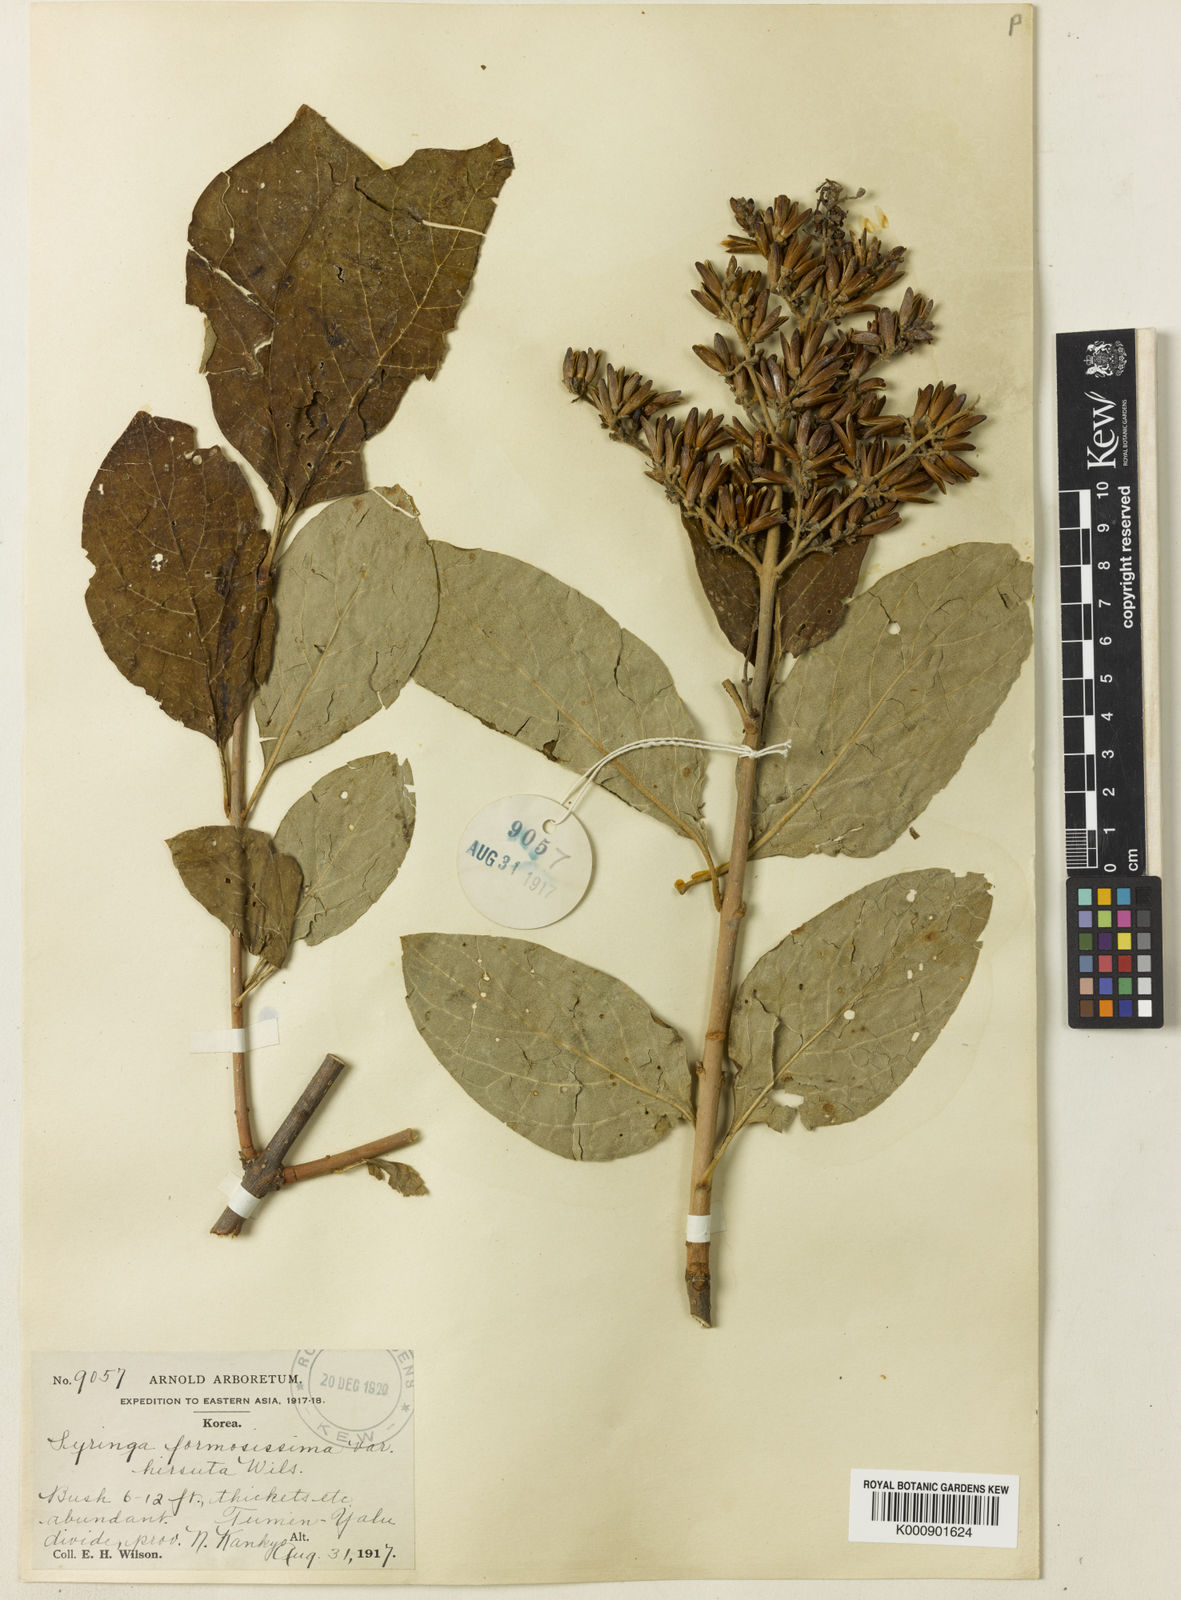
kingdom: Plantae
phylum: Tracheophyta
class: Magnoliopsida
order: Lamiales
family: Oleaceae
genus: Syringa
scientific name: Syringa villosa
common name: Villous lilac
